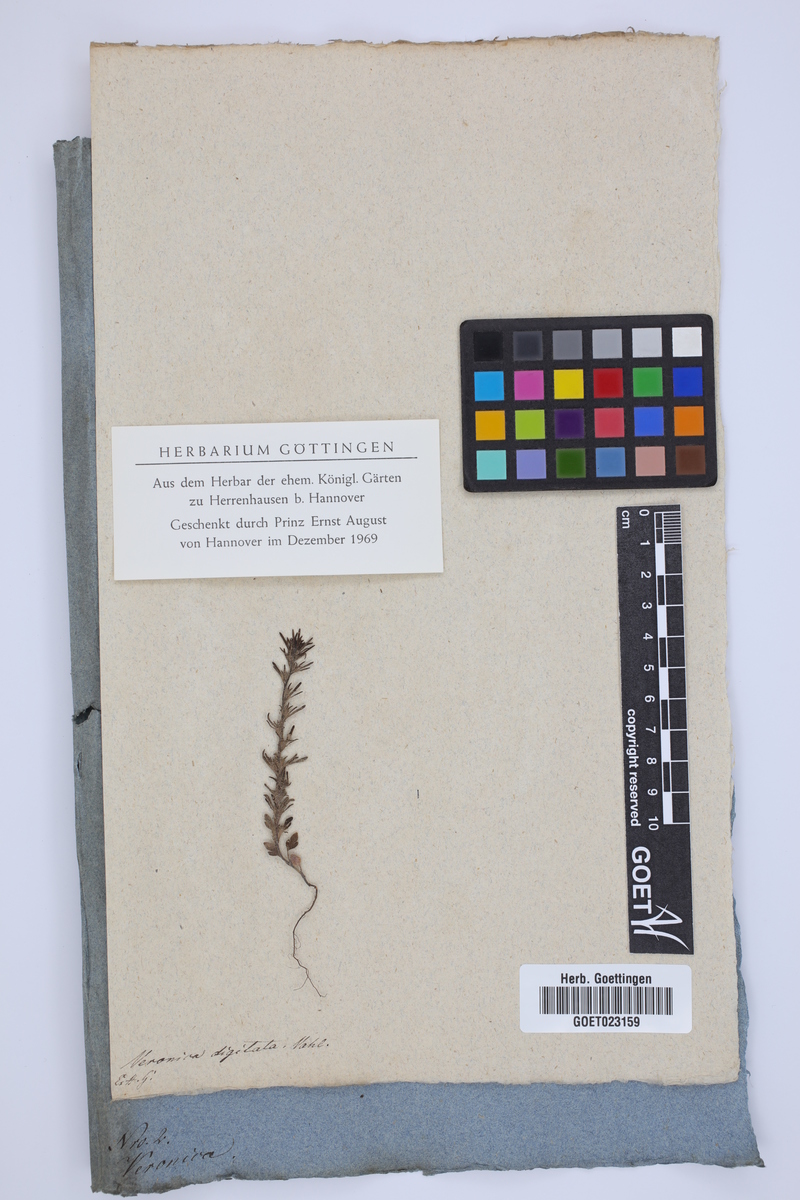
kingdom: Plantae
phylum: Tracheophyta
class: Magnoliopsida
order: Lamiales
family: Plantaginaceae
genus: Veronica
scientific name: Veronica chamaepithyoides
